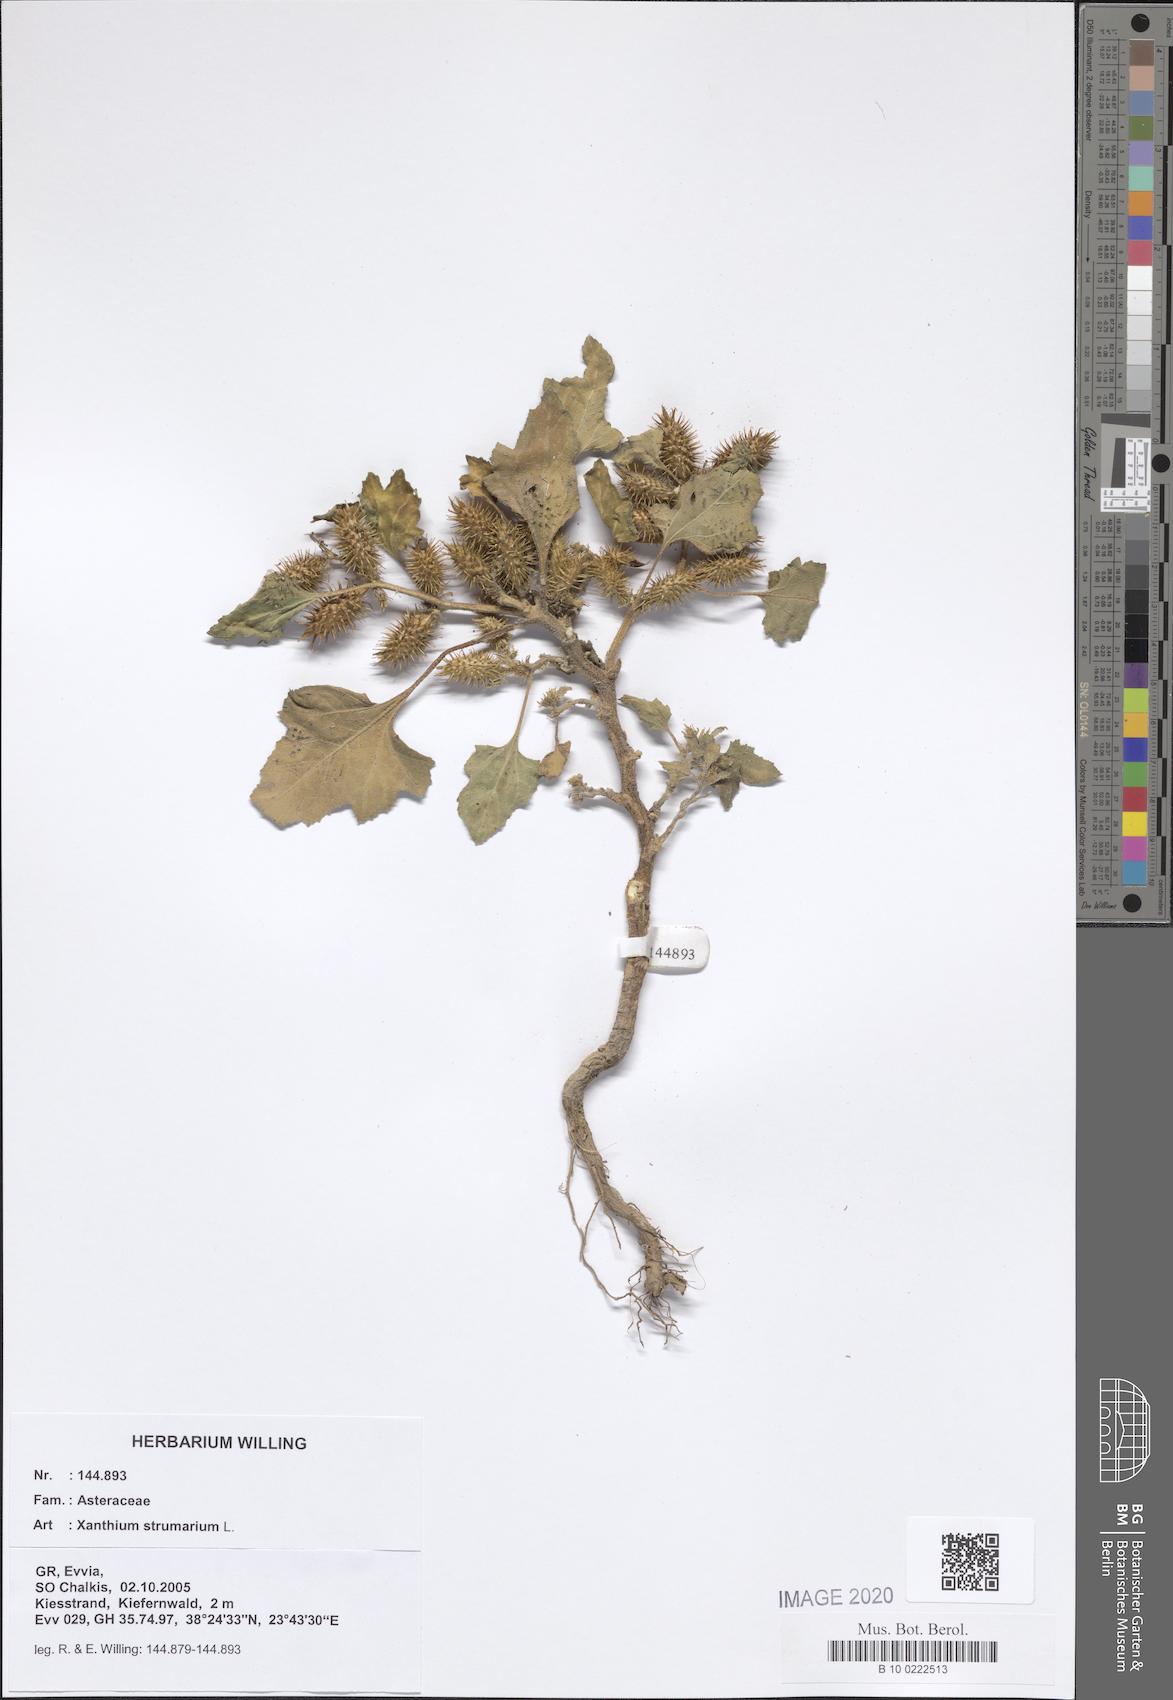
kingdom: Plantae
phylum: Tracheophyta
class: Magnoliopsida
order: Asterales
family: Asteraceae
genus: Xanthium
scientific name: Xanthium strumarium
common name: Rough cocklebur
